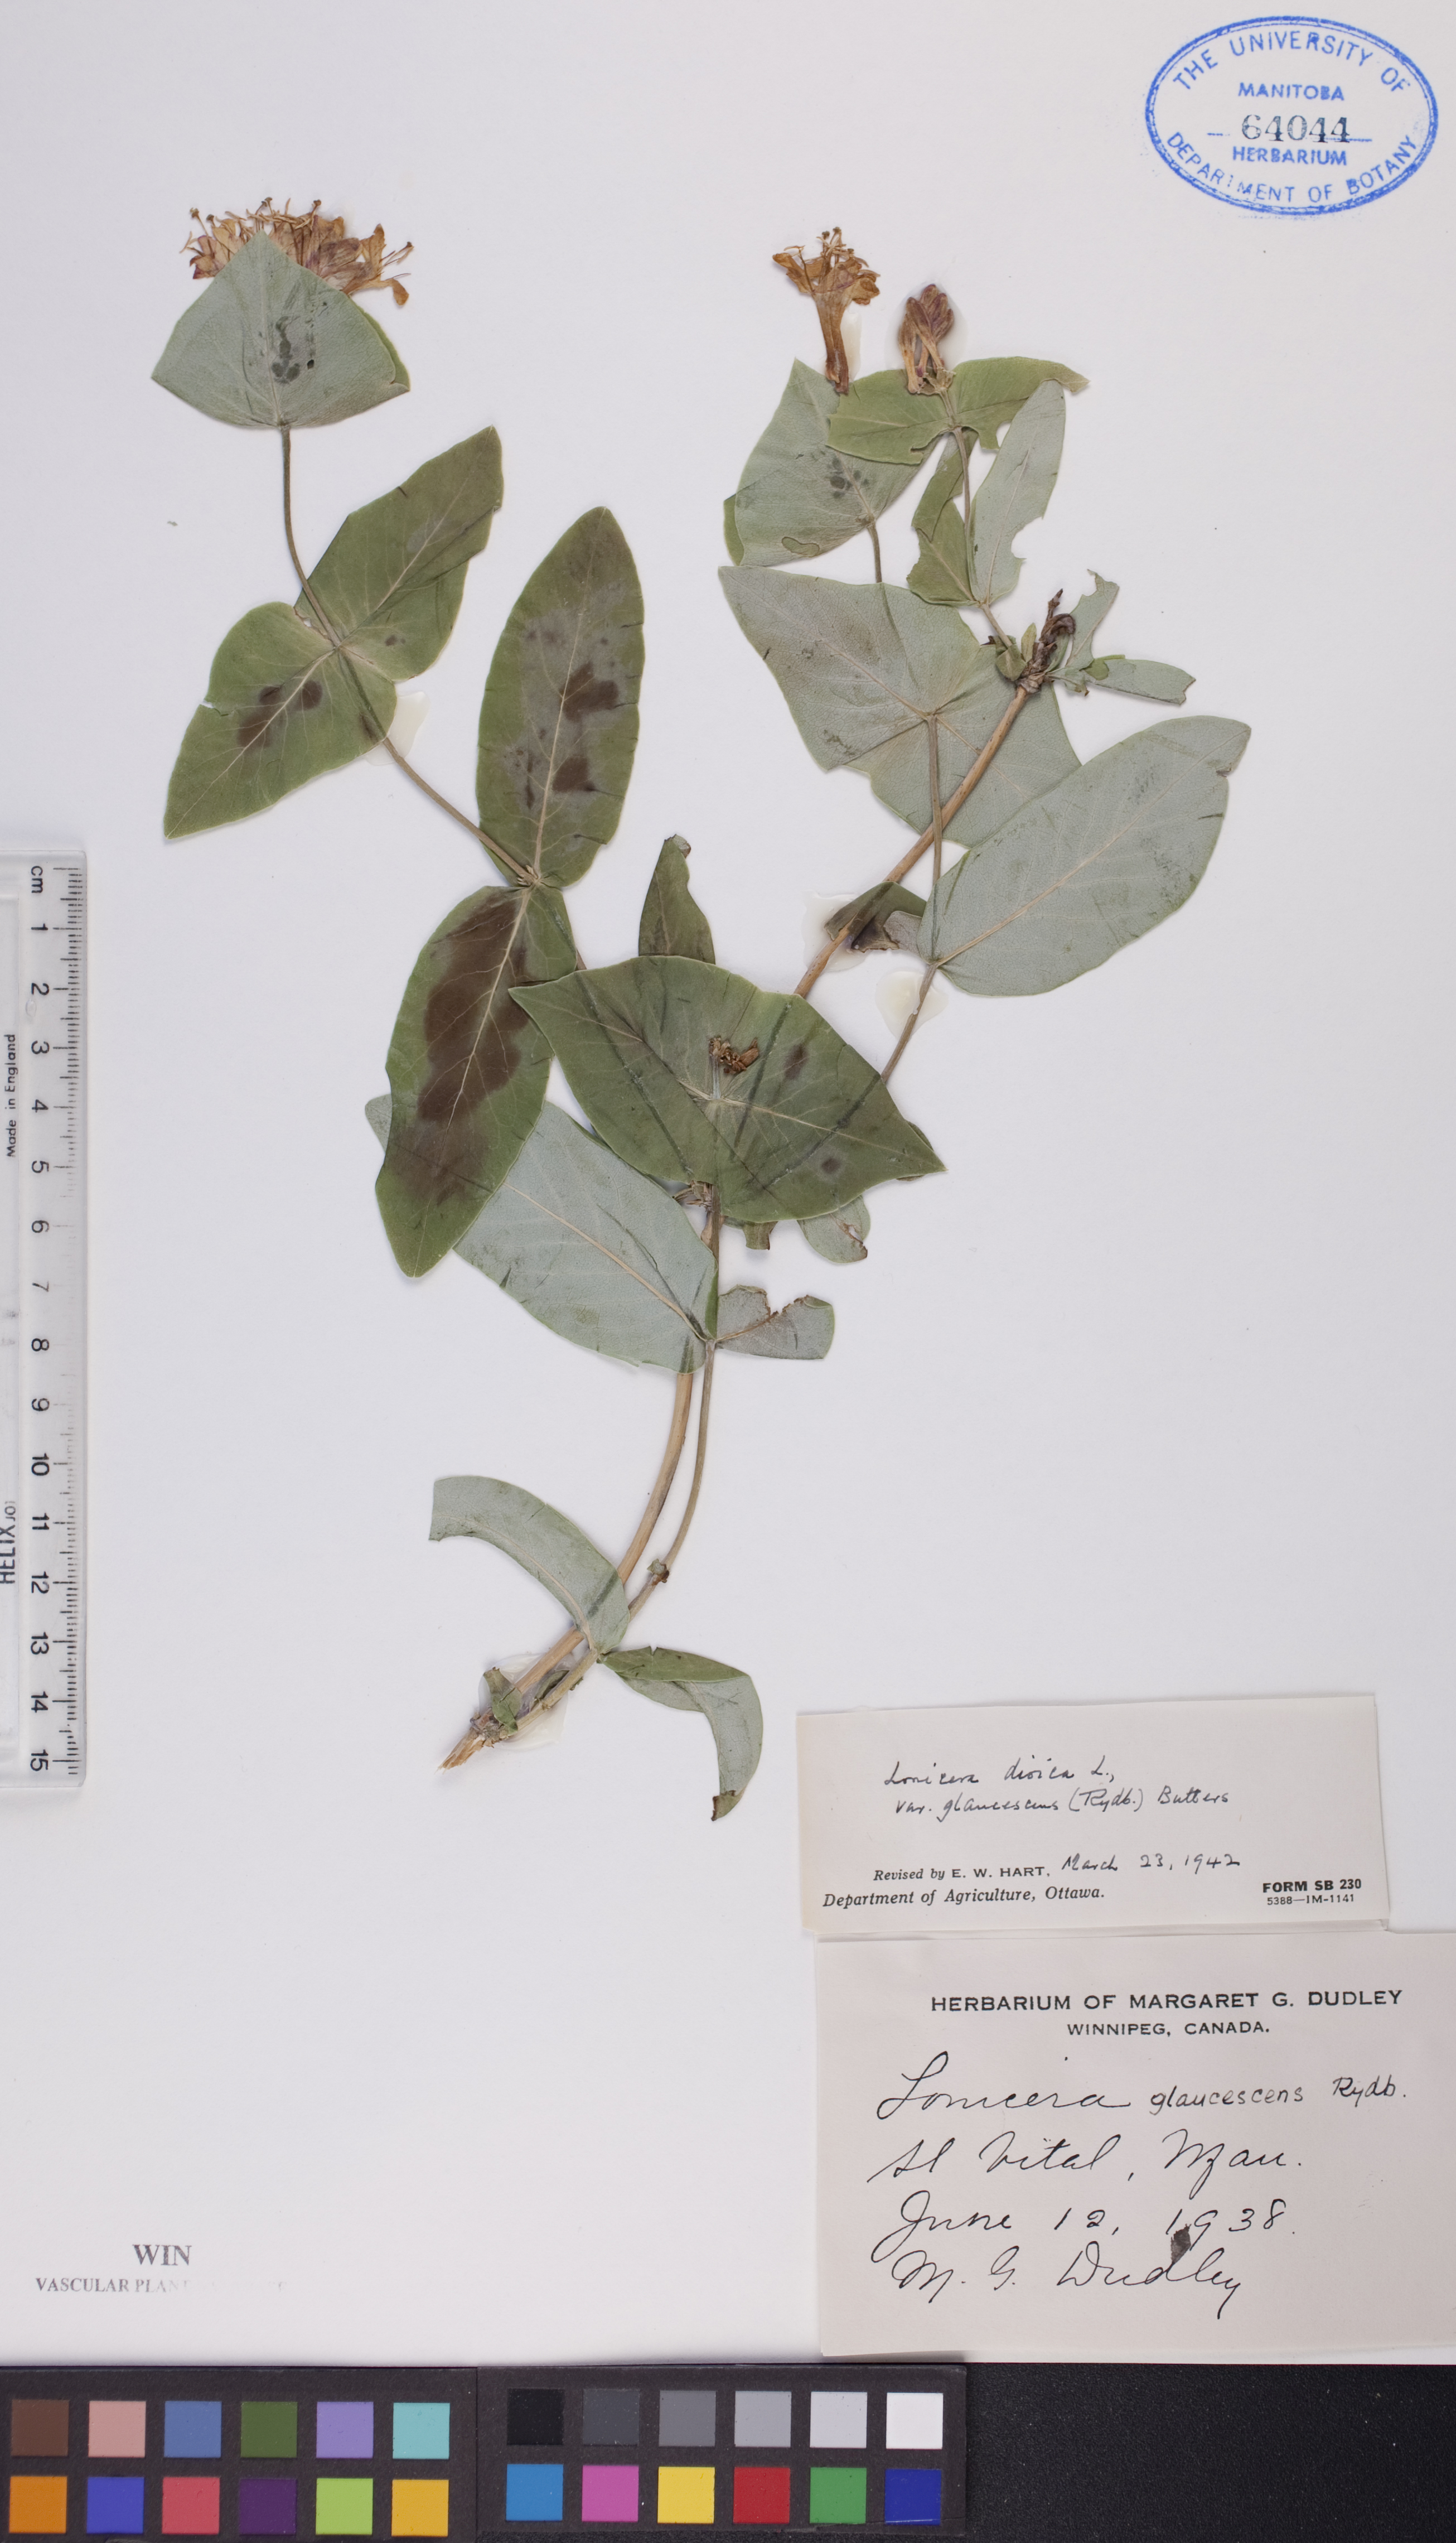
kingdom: Plantae
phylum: Tracheophyta
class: Magnoliopsida
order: Dipsacales
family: Caprifoliaceae
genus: Lonicera
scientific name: Lonicera dioica
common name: Limber honeysuckle
